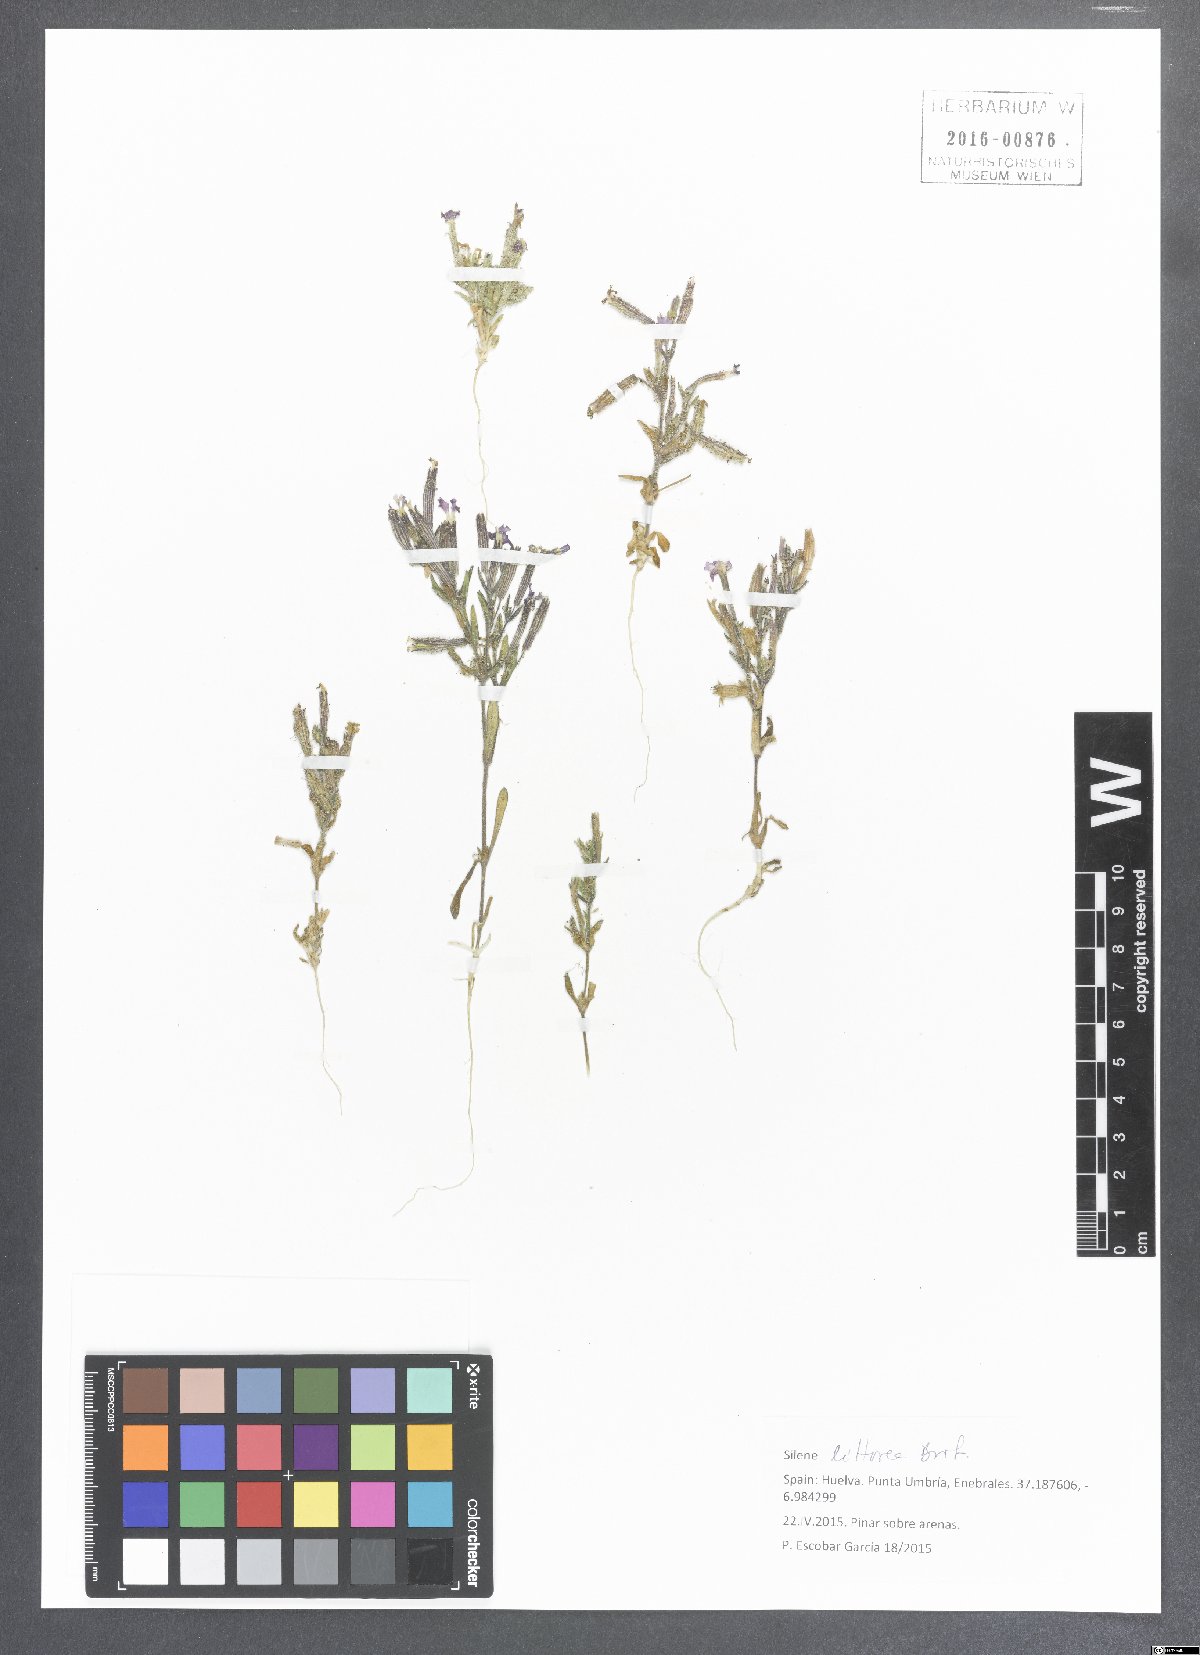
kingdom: Plantae
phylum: Tracheophyta
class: Magnoliopsida
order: Caryophyllales
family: Caryophyllaceae
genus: Silene
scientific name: Silene littorea
